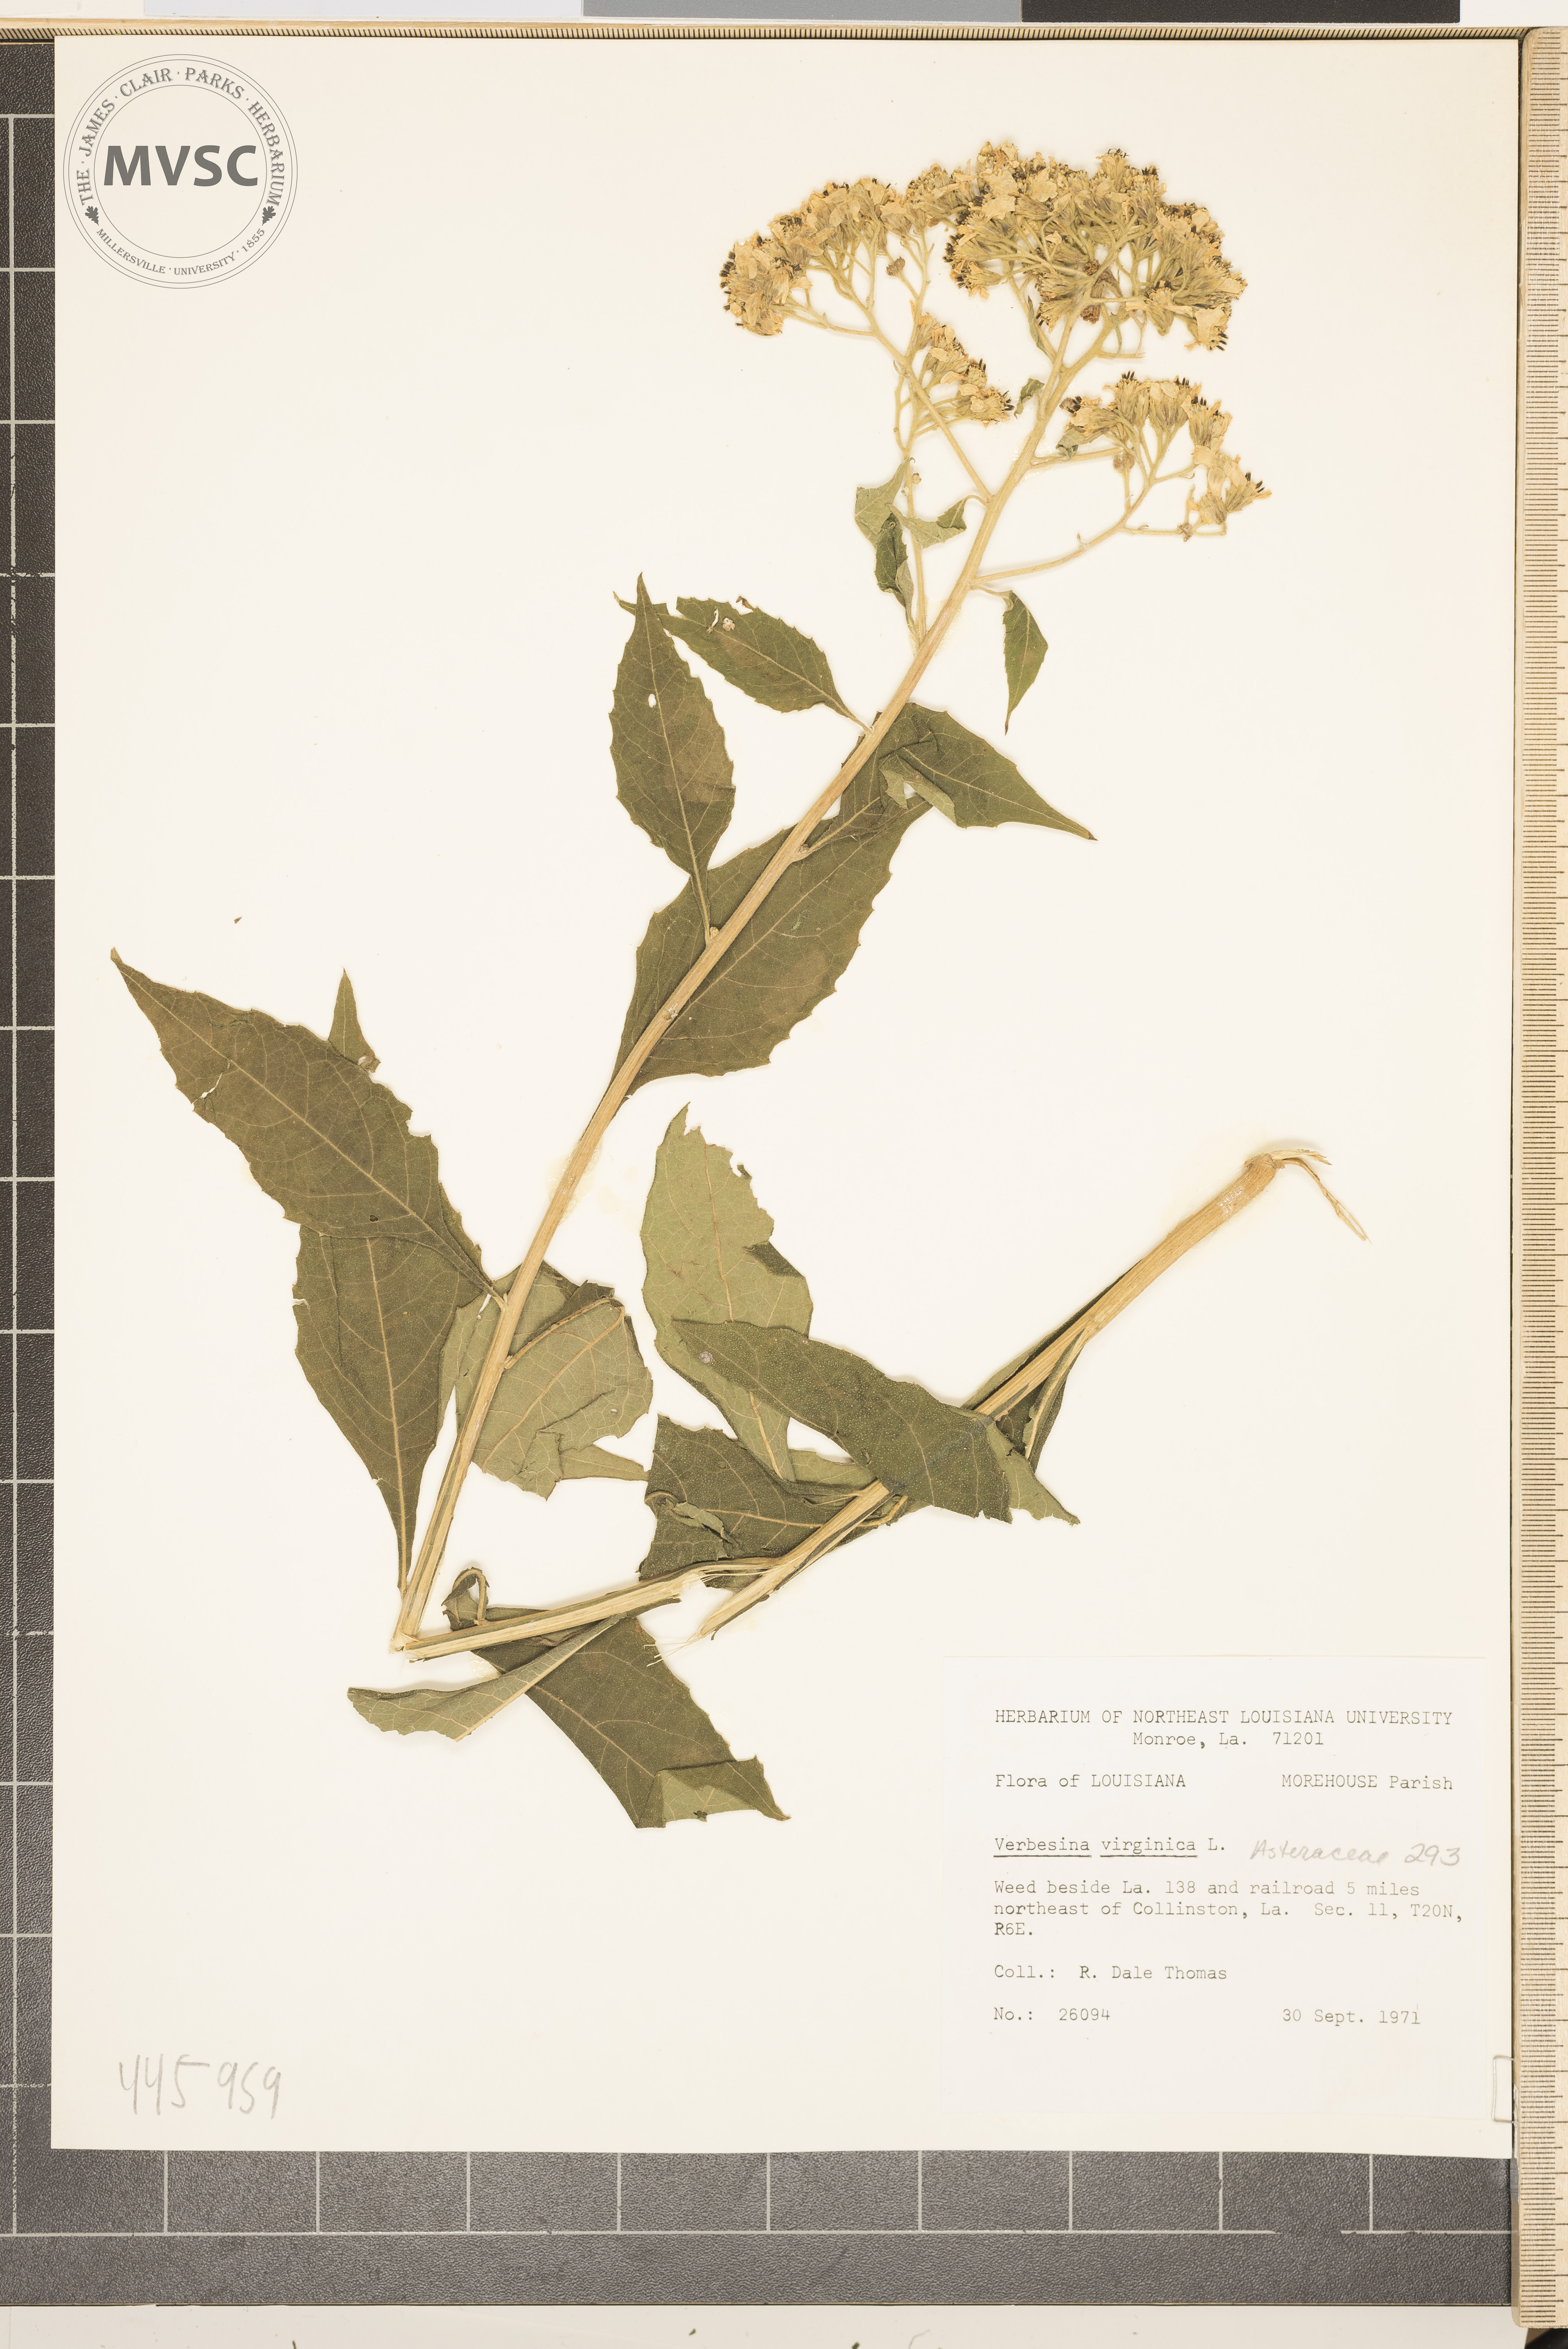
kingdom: Plantae
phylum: Tracheophyta
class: Magnoliopsida
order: Asterales
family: Asteraceae
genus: Verbesina
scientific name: Verbesina virginica
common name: Frostweed
